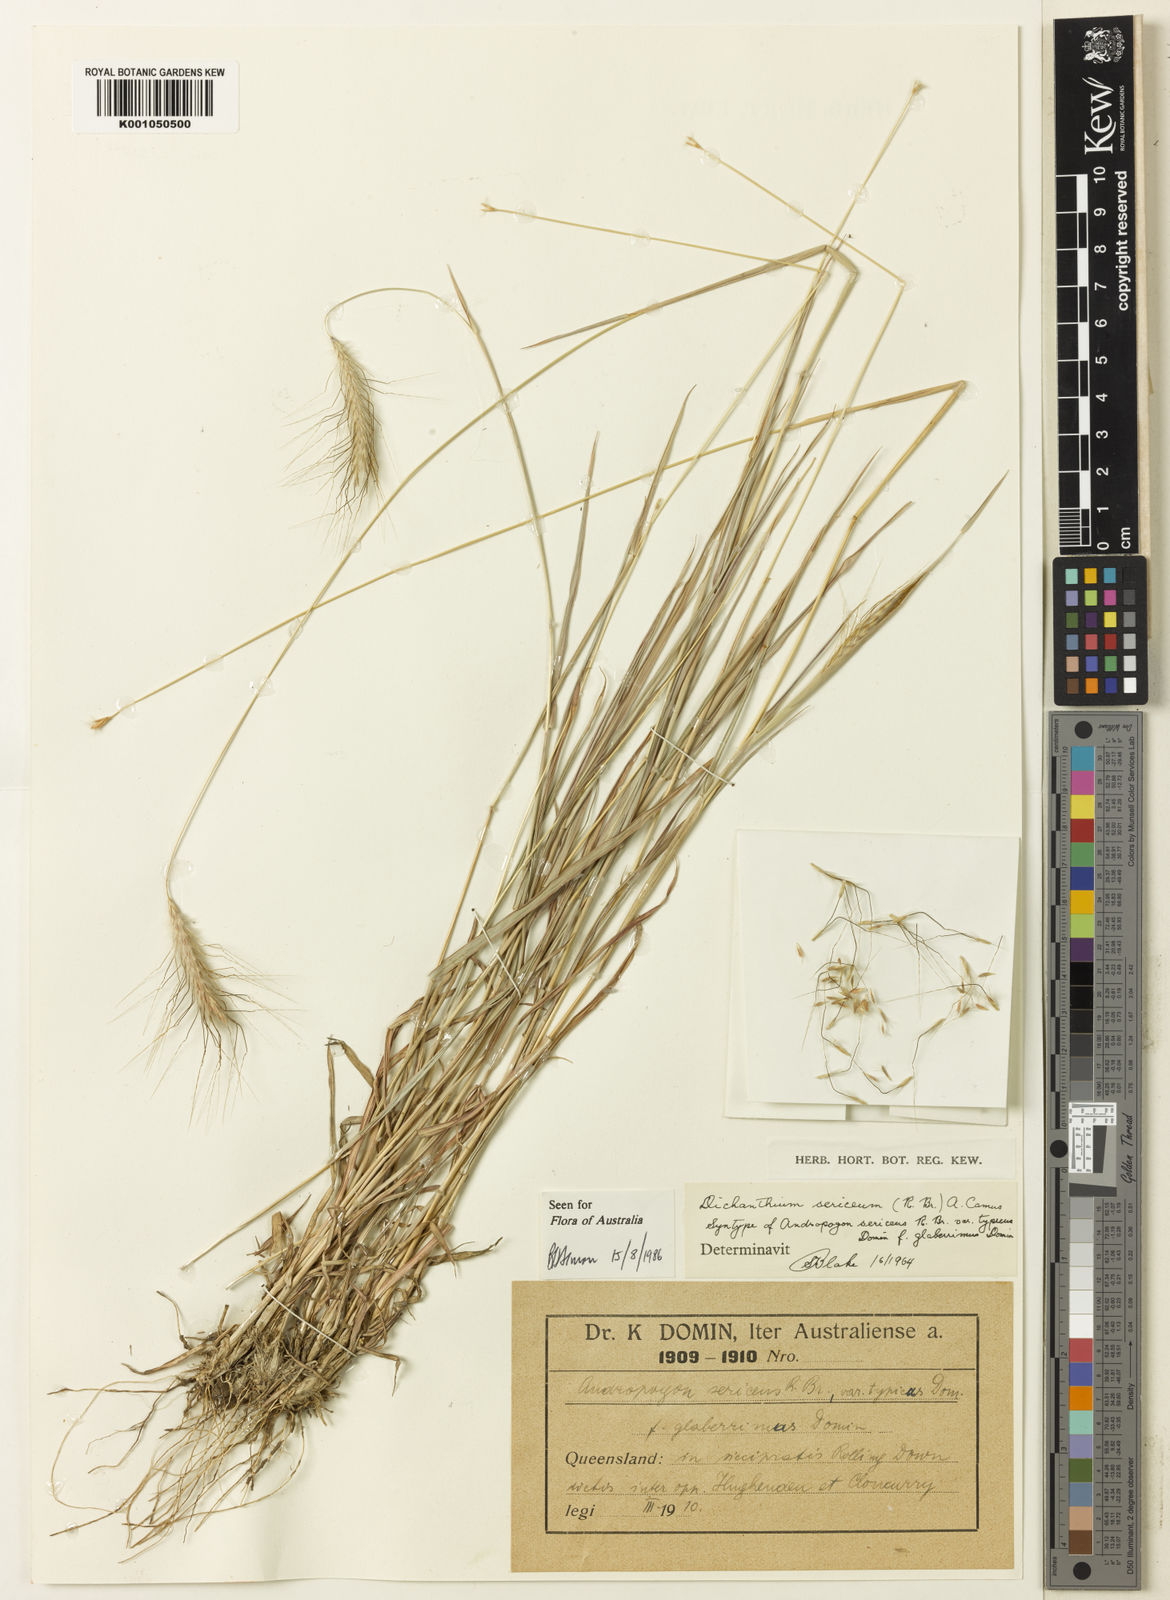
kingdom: Plantae
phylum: Tracheophyta
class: Liliopsida
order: Poales
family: Poaceae
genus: Dichanthium
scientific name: Dichanthium sericeum
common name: Silky bluestem
